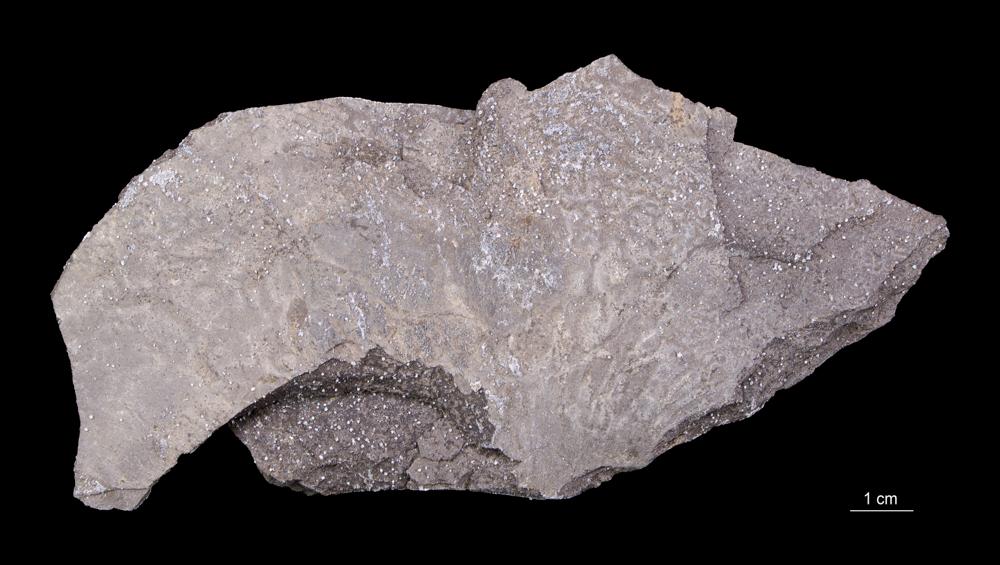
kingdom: Animalia
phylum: Hemichordata
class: Pterobranchia
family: Anisograptidae
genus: Rhabdinopora
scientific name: Rhabdinopora Gorgonia flabelliformis
